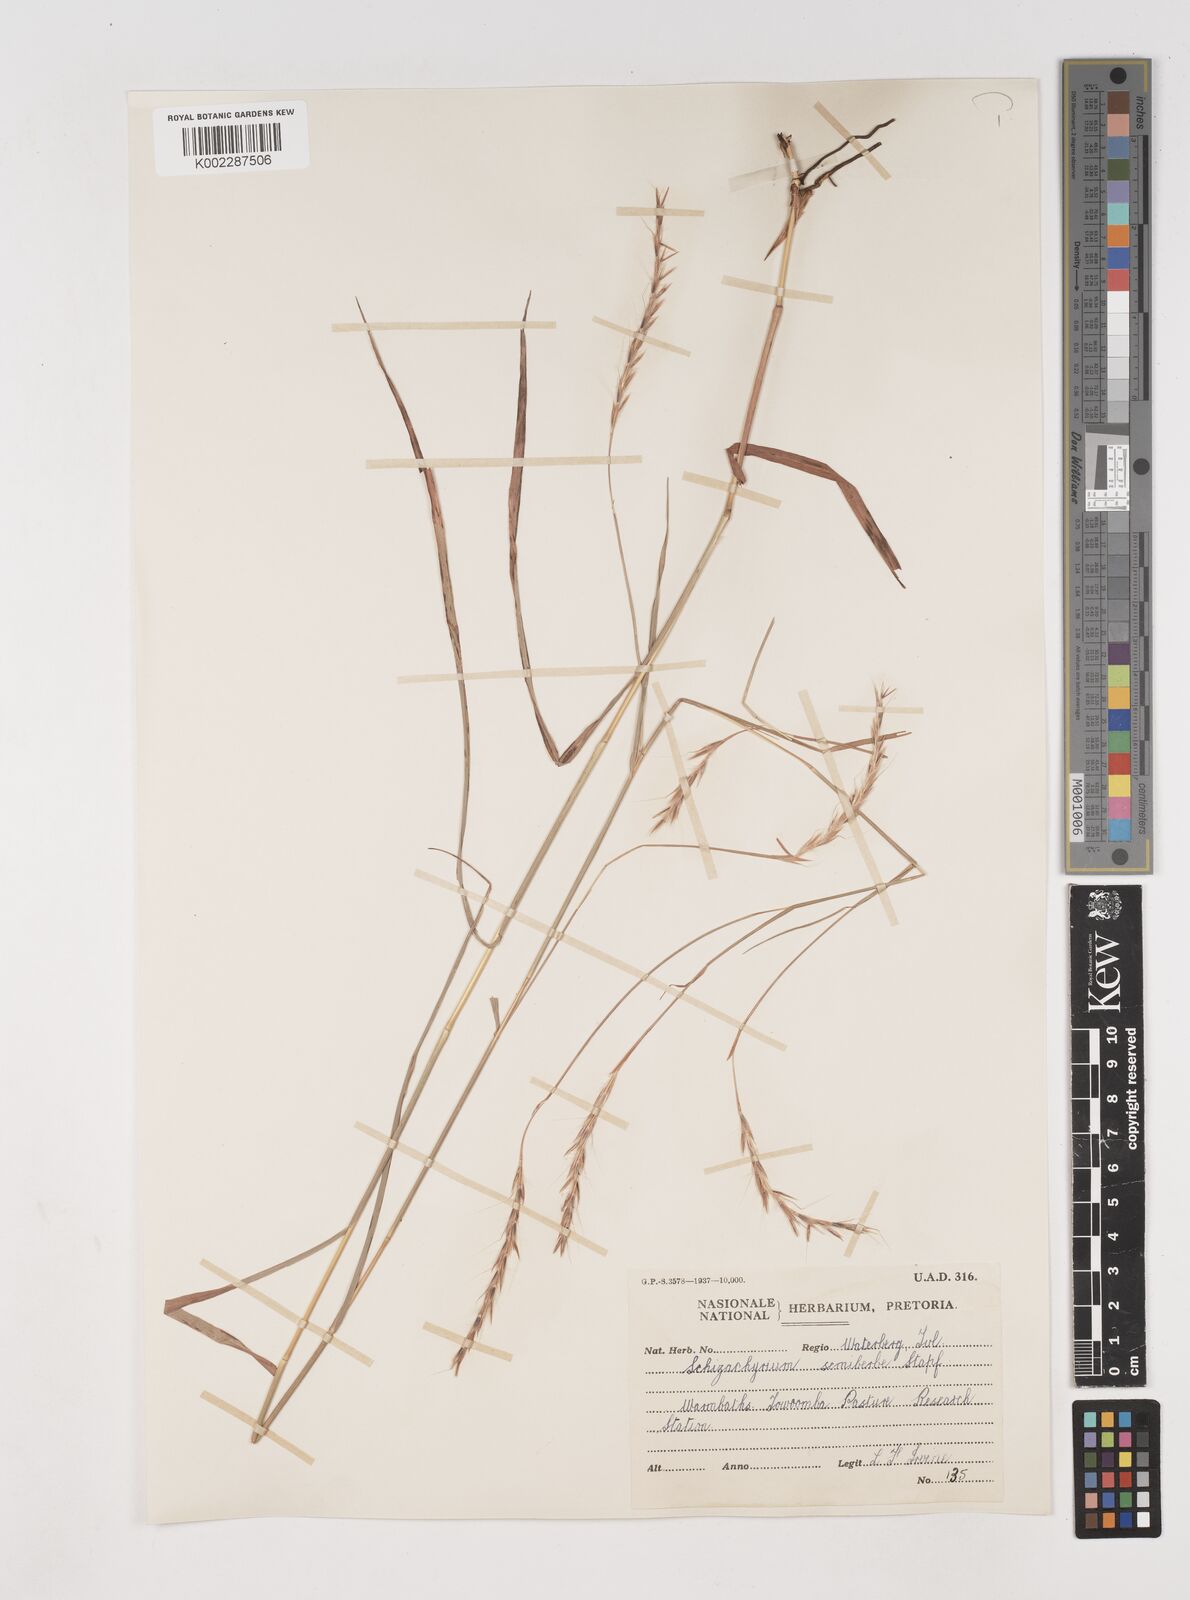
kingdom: Plantae
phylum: Tracheophyta
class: Liliopsida
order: Poales
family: Poaceae
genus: Schizachyrium
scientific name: Schizachyrium jeffreysii
